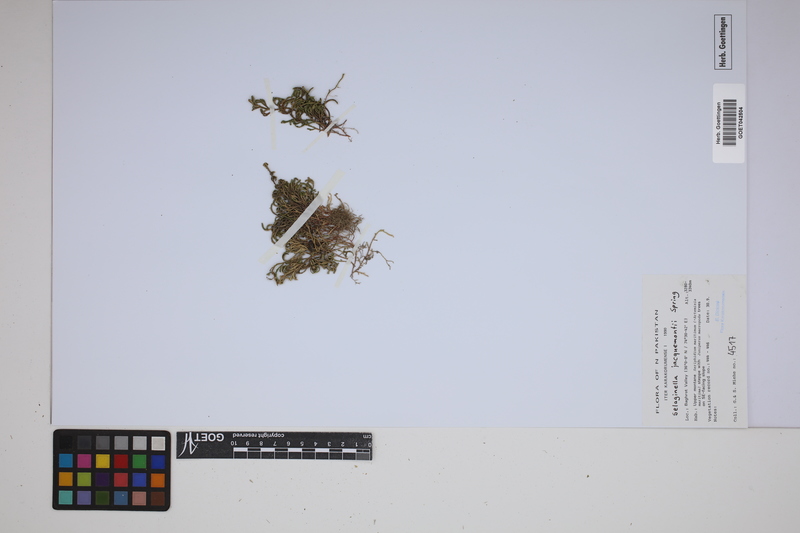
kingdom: Plantae
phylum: Tracheophyta
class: Lycopodiopsida
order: Selaginellales
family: Selaginellaceae
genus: Selaginella
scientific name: Selaginella jacquemontii
